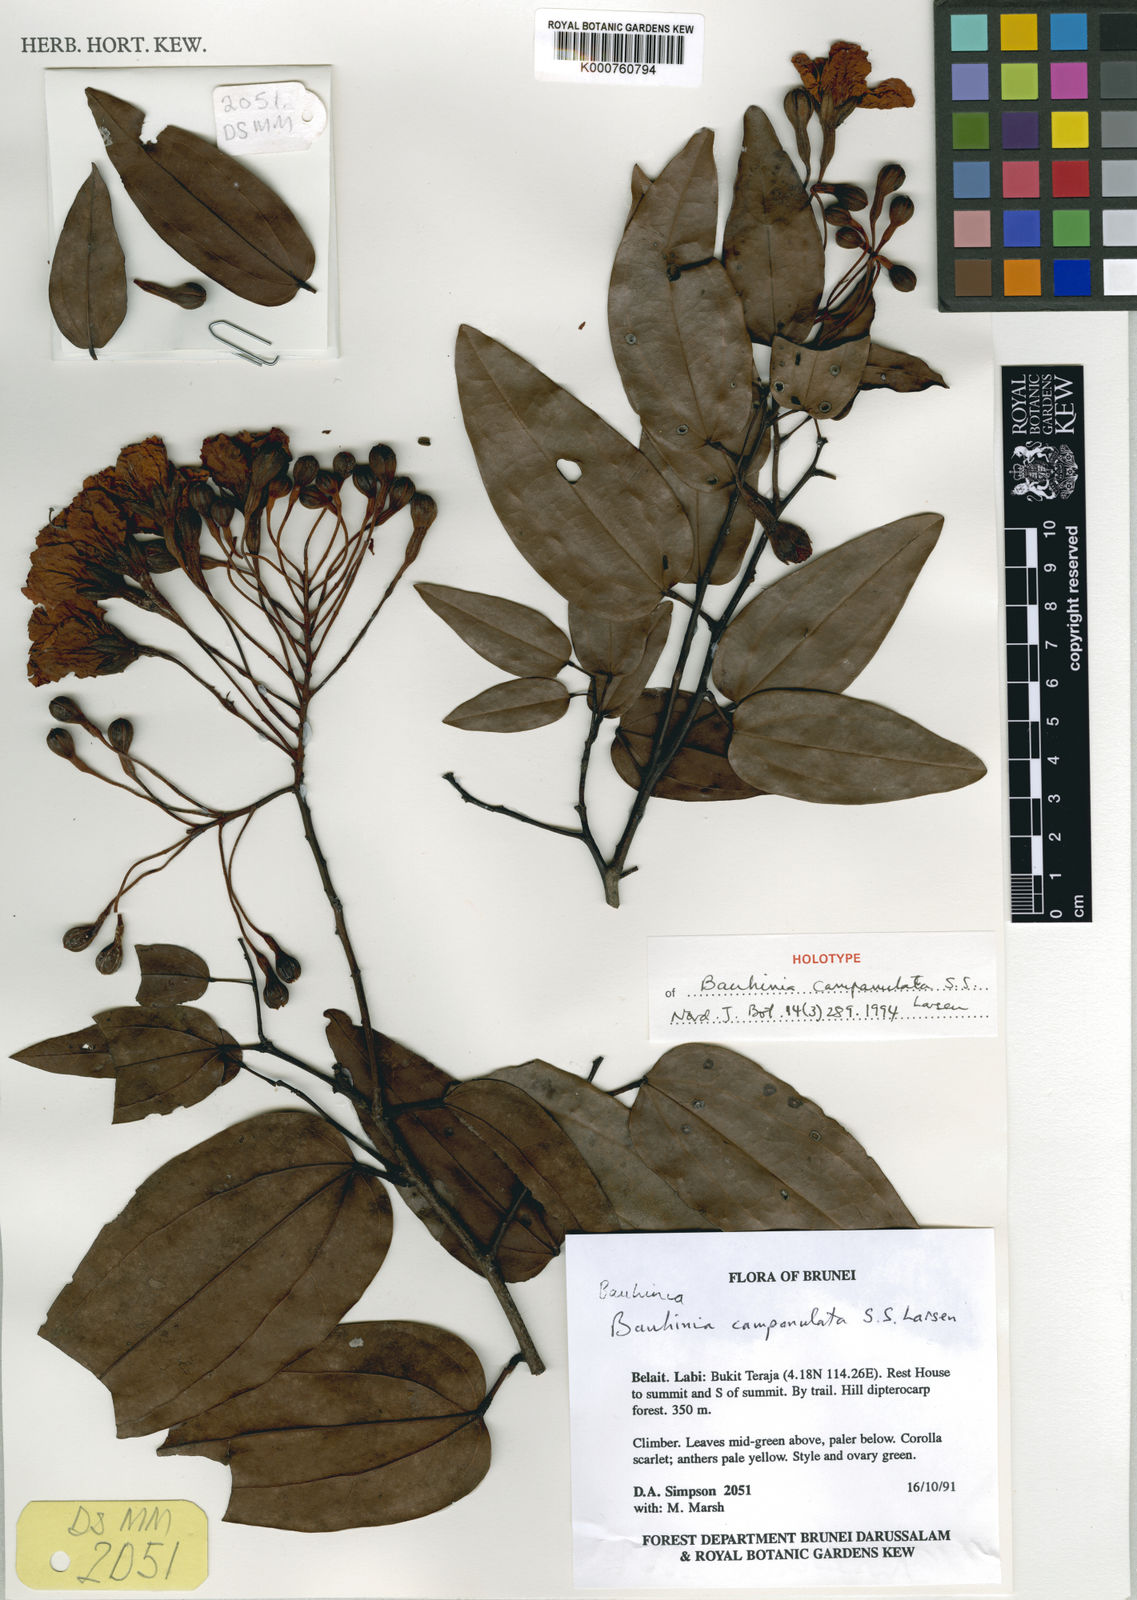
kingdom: Plantae
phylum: Tracheophyta
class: Magnoliopsida
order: Fabales
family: Fabaceae
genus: Phanera
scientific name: Phanera campanulata
